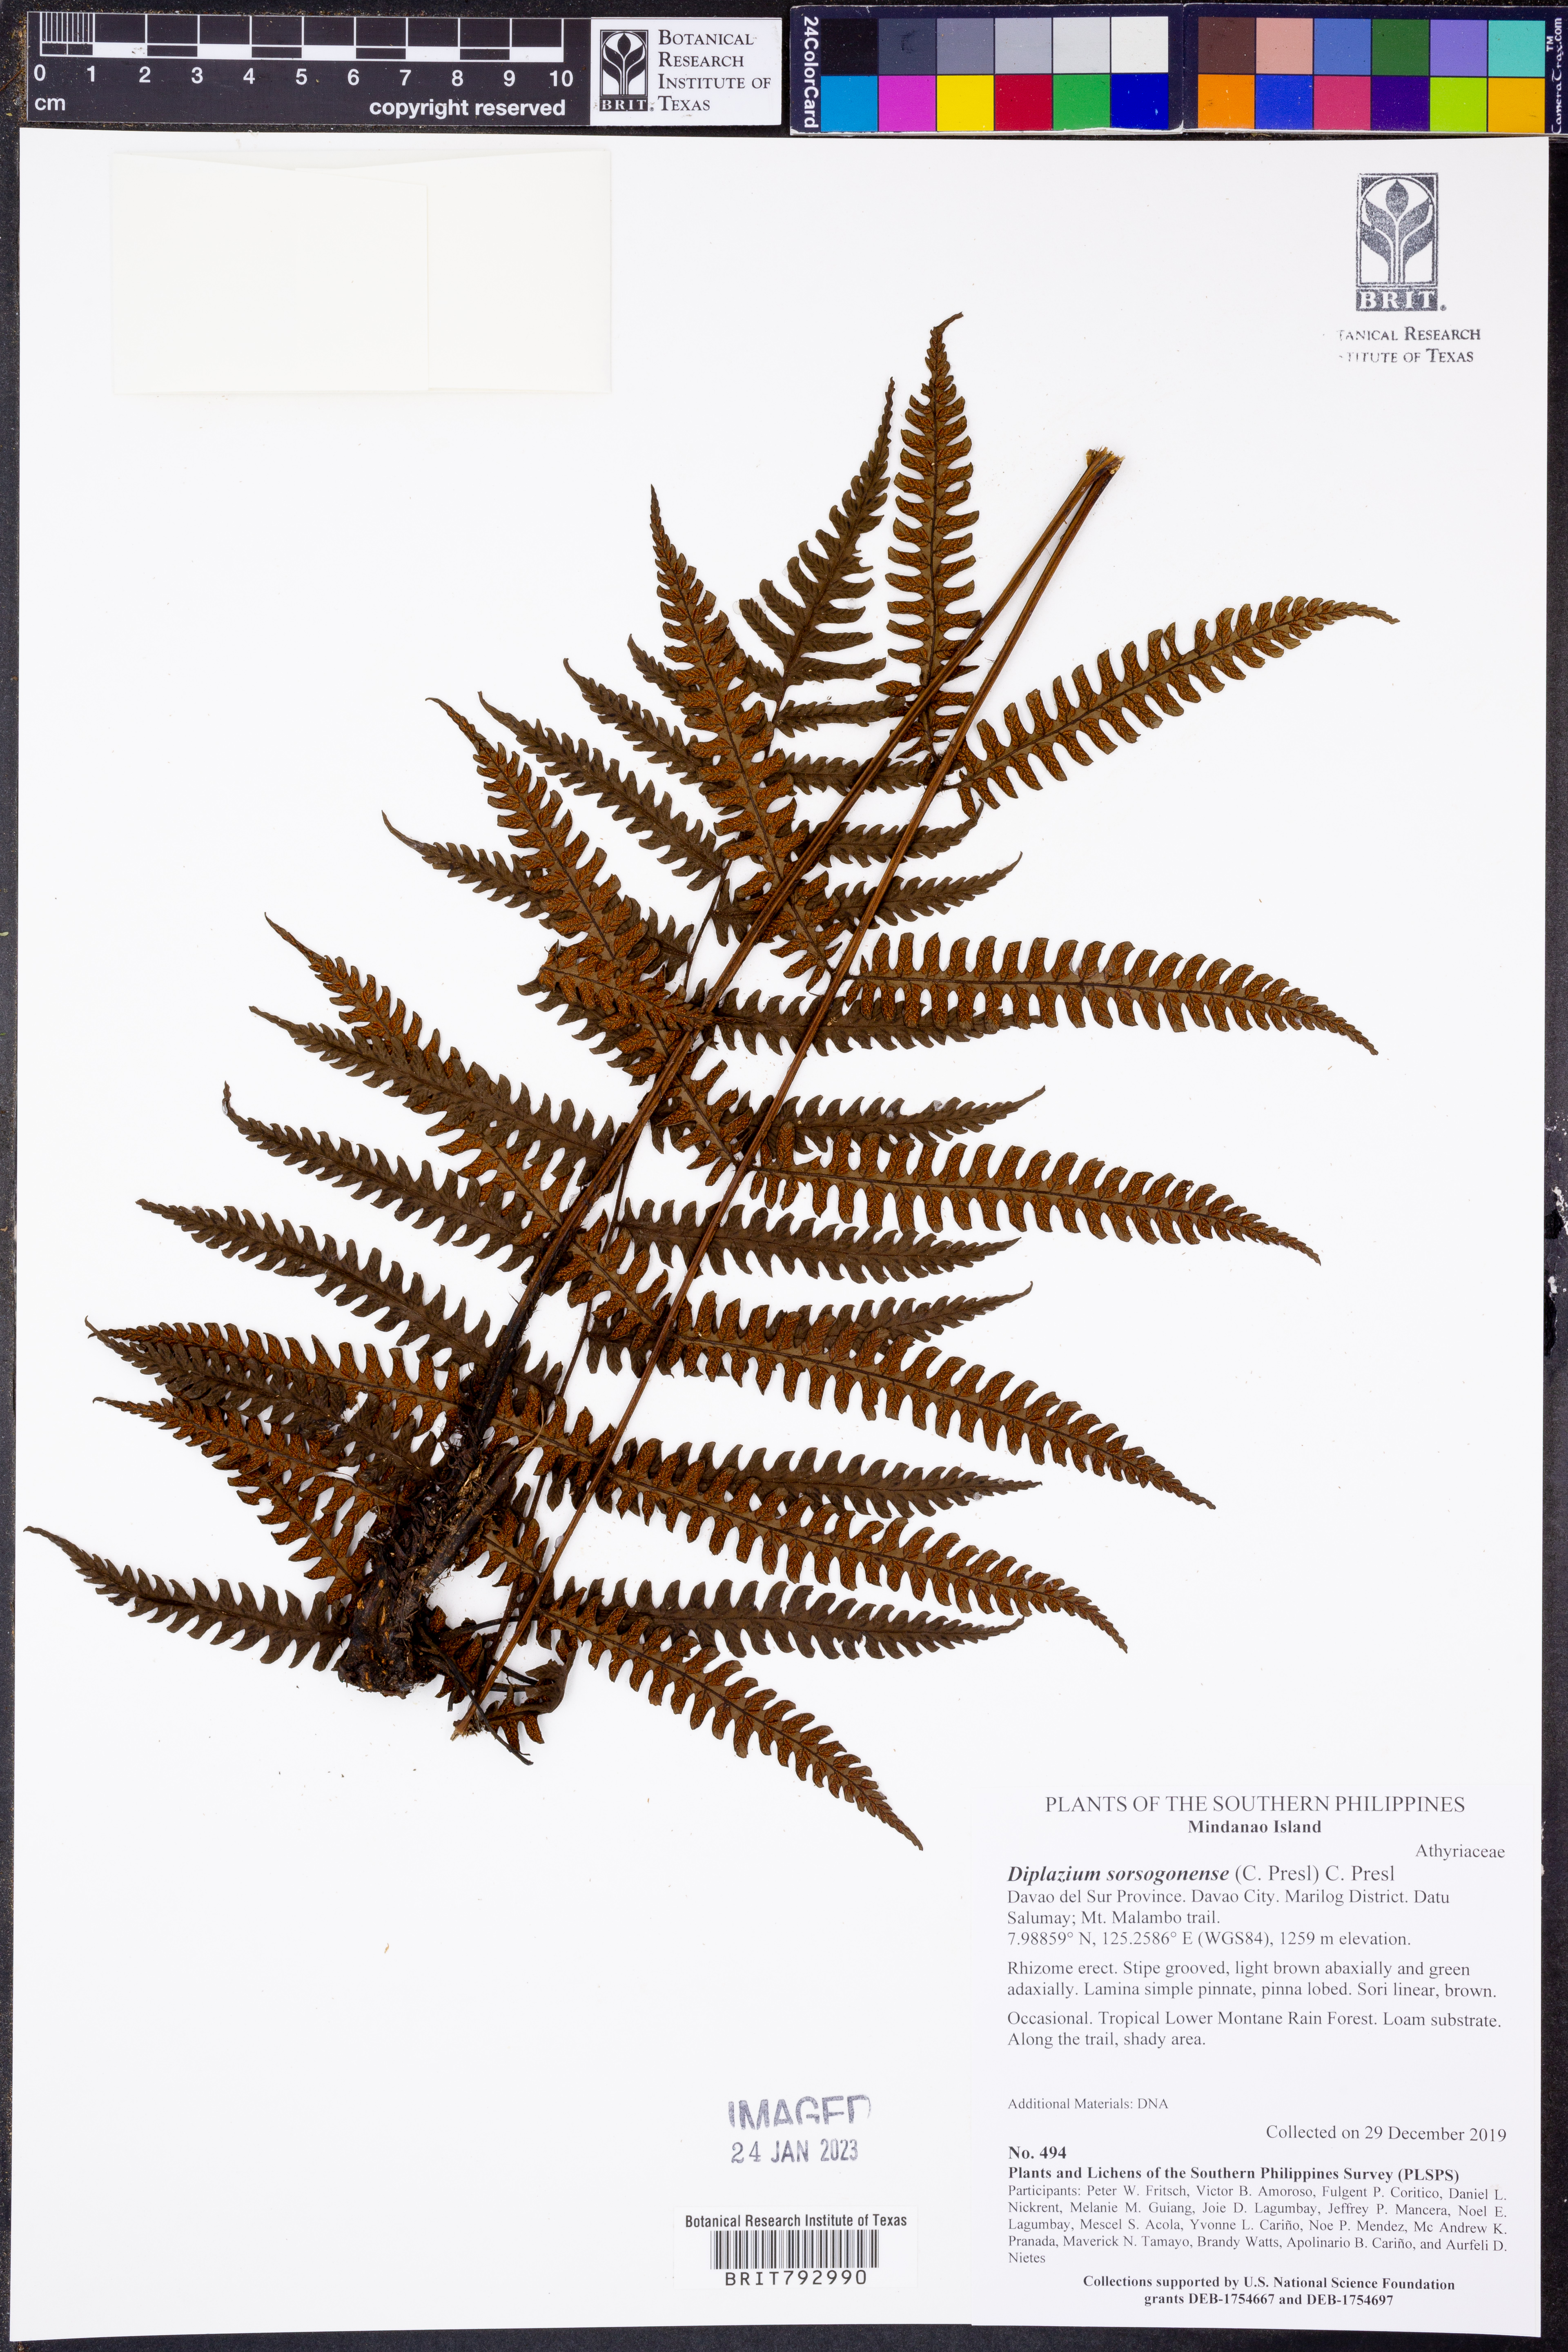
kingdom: Plantae
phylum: Tracheophyta
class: Polypodiopsida
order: Polypodiales
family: Athyriaceae
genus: Diplazium
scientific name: Diplazium sorzogonense
